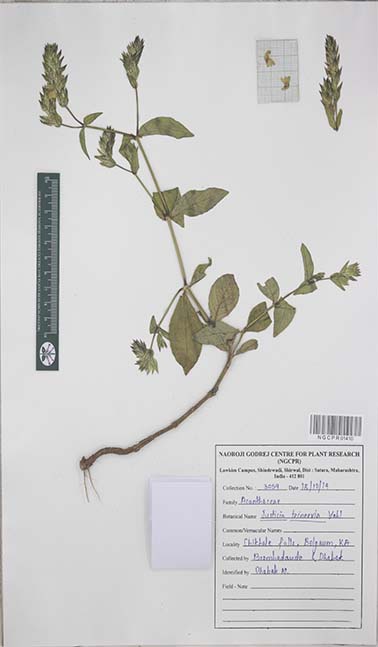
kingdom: Plantae
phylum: Tracheophyta
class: Magnoliopsida
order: Lamiales
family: Acanthaceae
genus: Nicoteba
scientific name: Nicoteba trinervia
